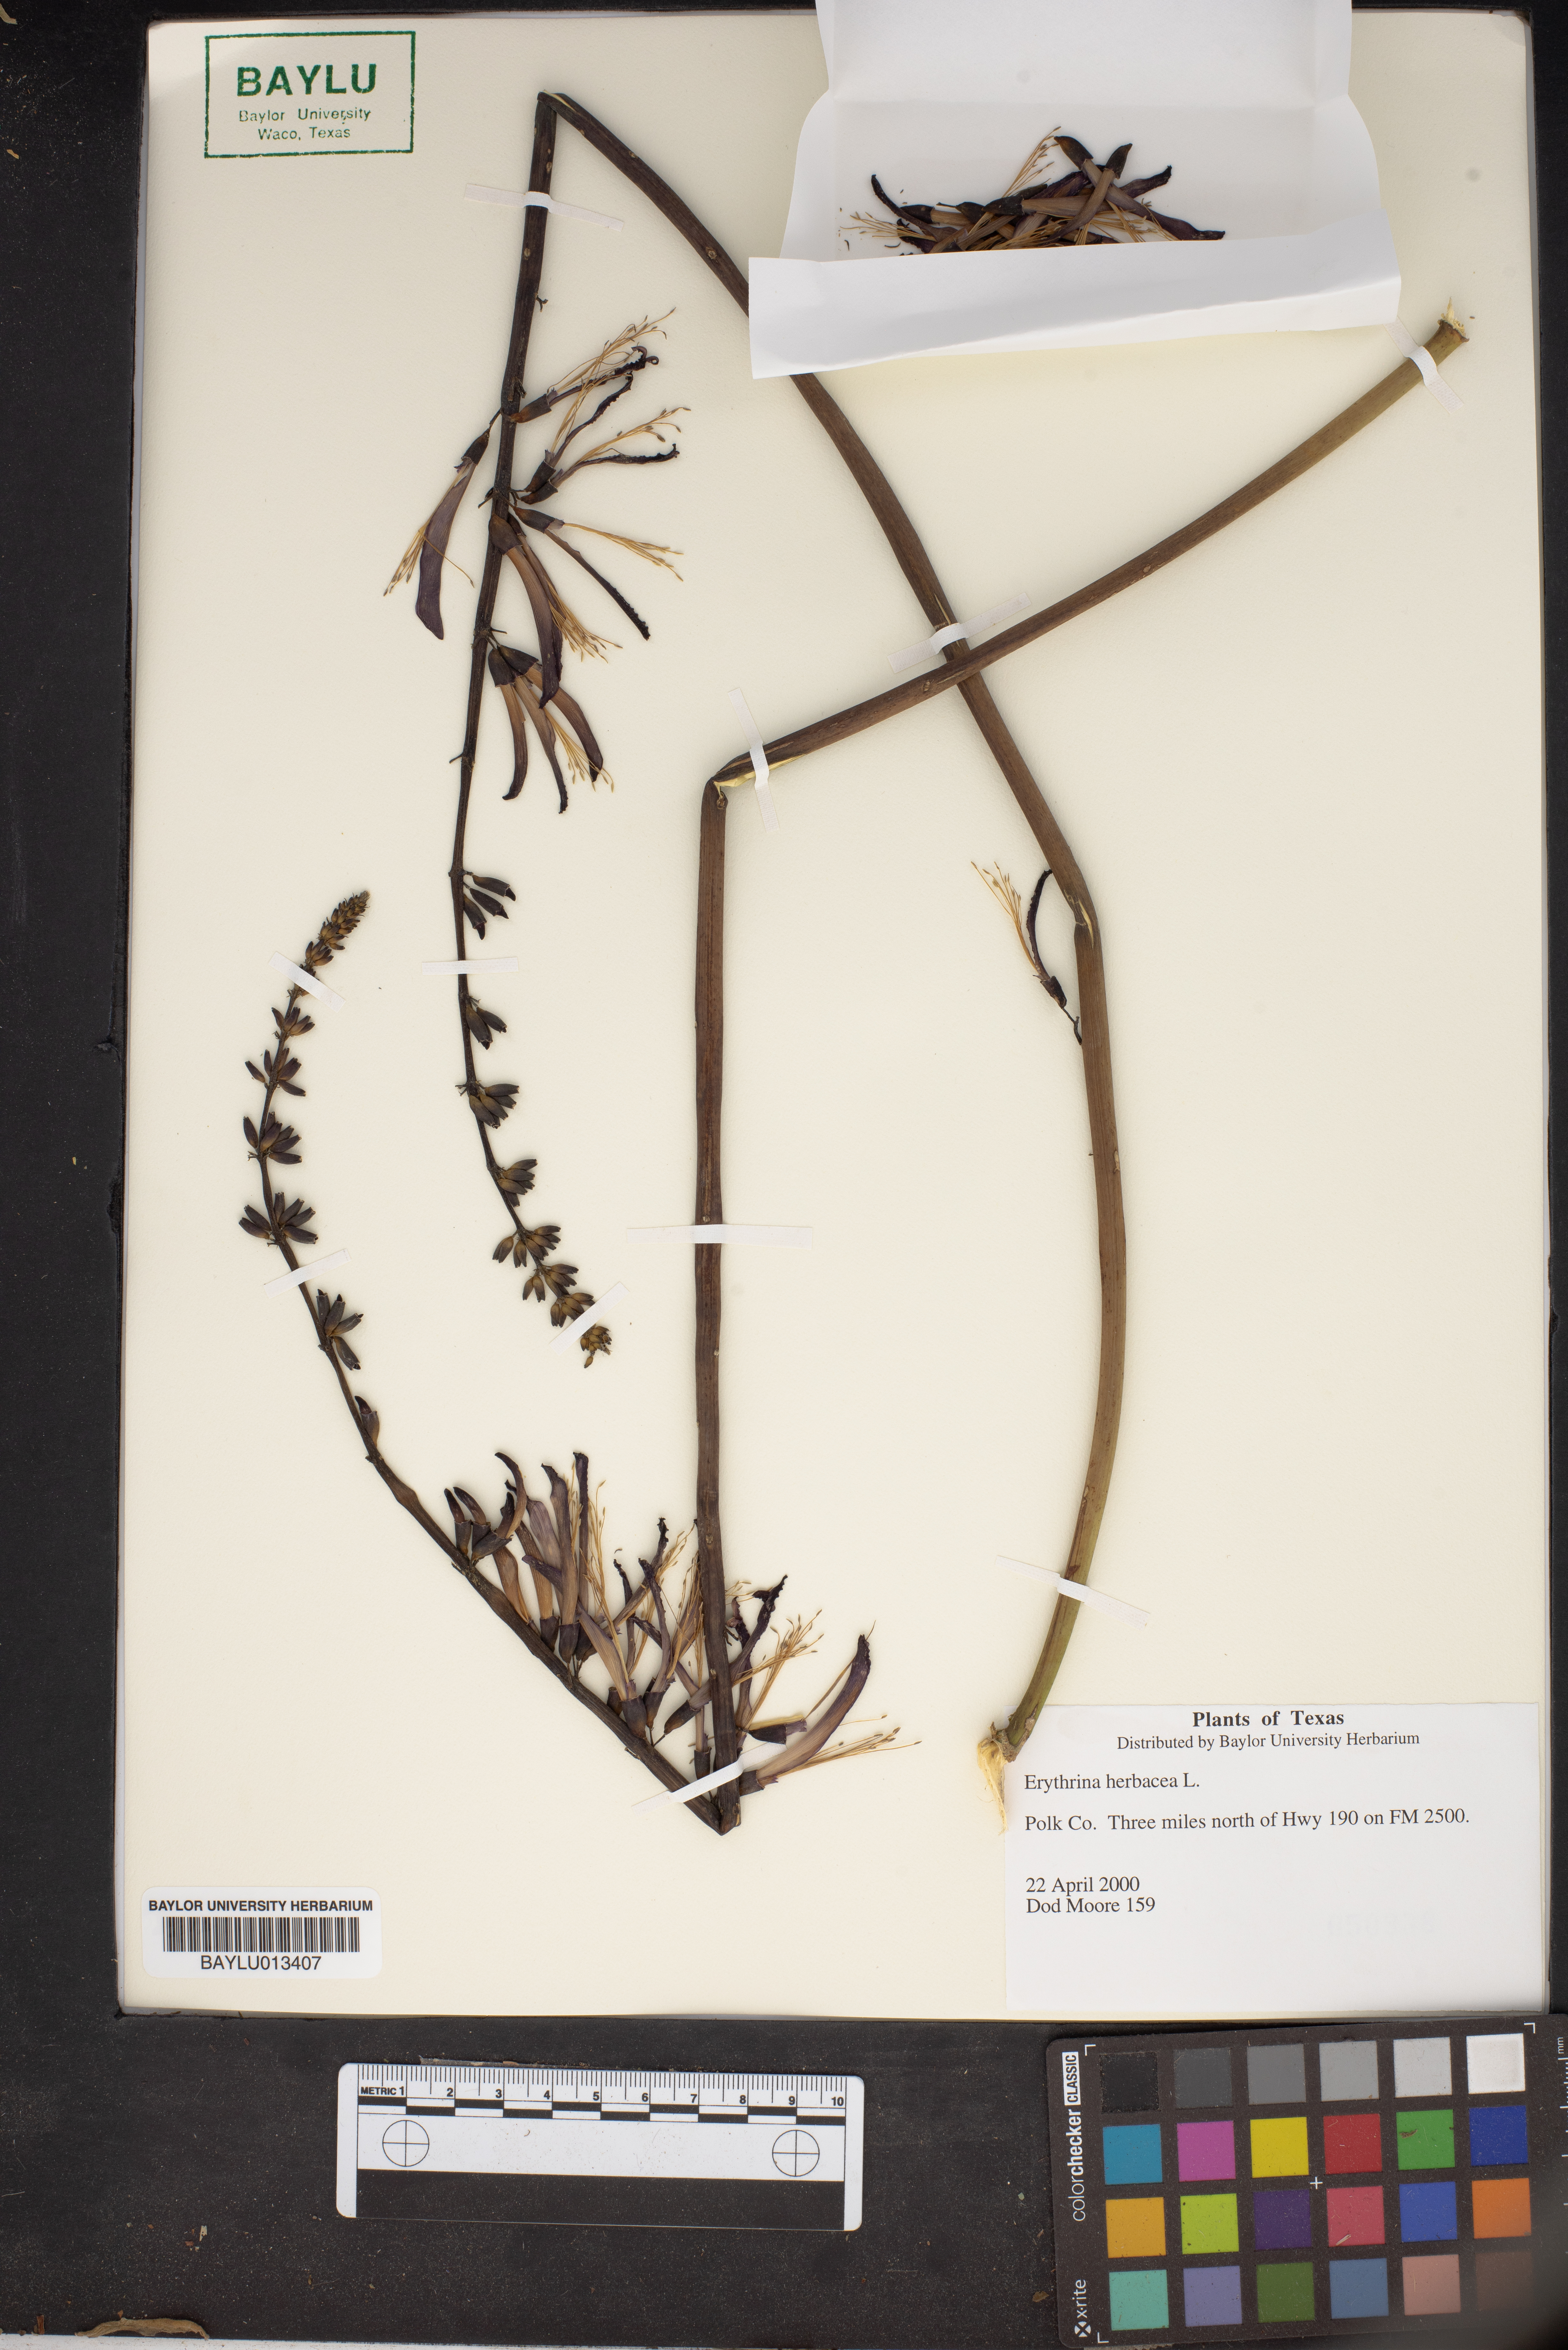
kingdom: Plantae
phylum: Tracheophyta
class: Magnoliopsida
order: Fabales
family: Fabaceae
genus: Erythrina
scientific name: Erythrina herbacea
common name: Coral-bean
